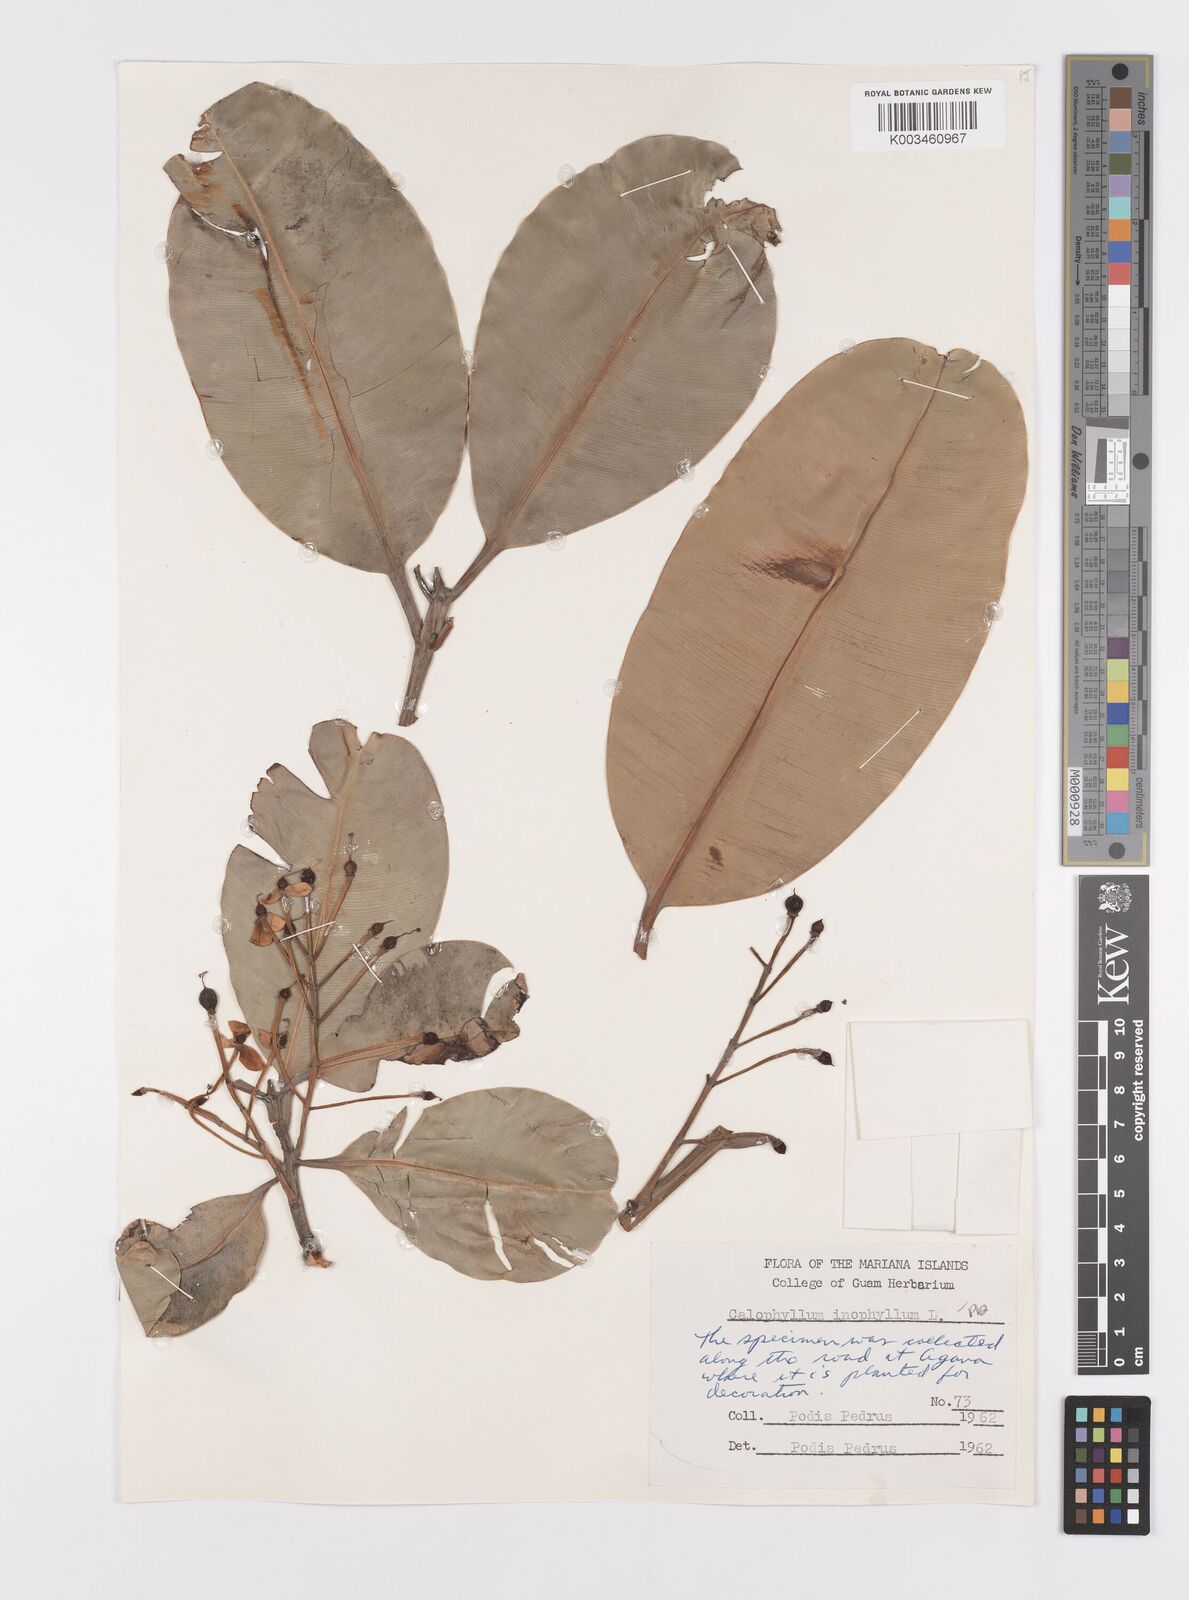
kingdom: Plantae
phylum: Tracheophyta
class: Magnoliopsida
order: Malpighiales
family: Calophyllaceae
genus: Calophyllum
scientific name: Calophyllum inophyllum
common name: Alexandrian laurel
